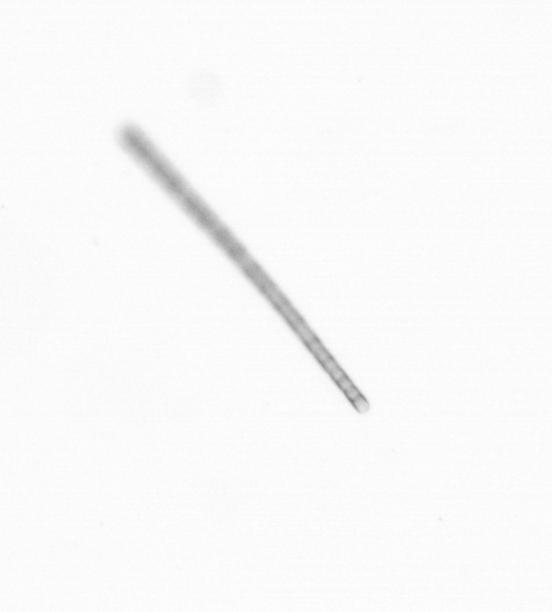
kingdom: Chromista
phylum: Ochrophyta
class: Bacillariophyceae
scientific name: Bacillariophyceae
